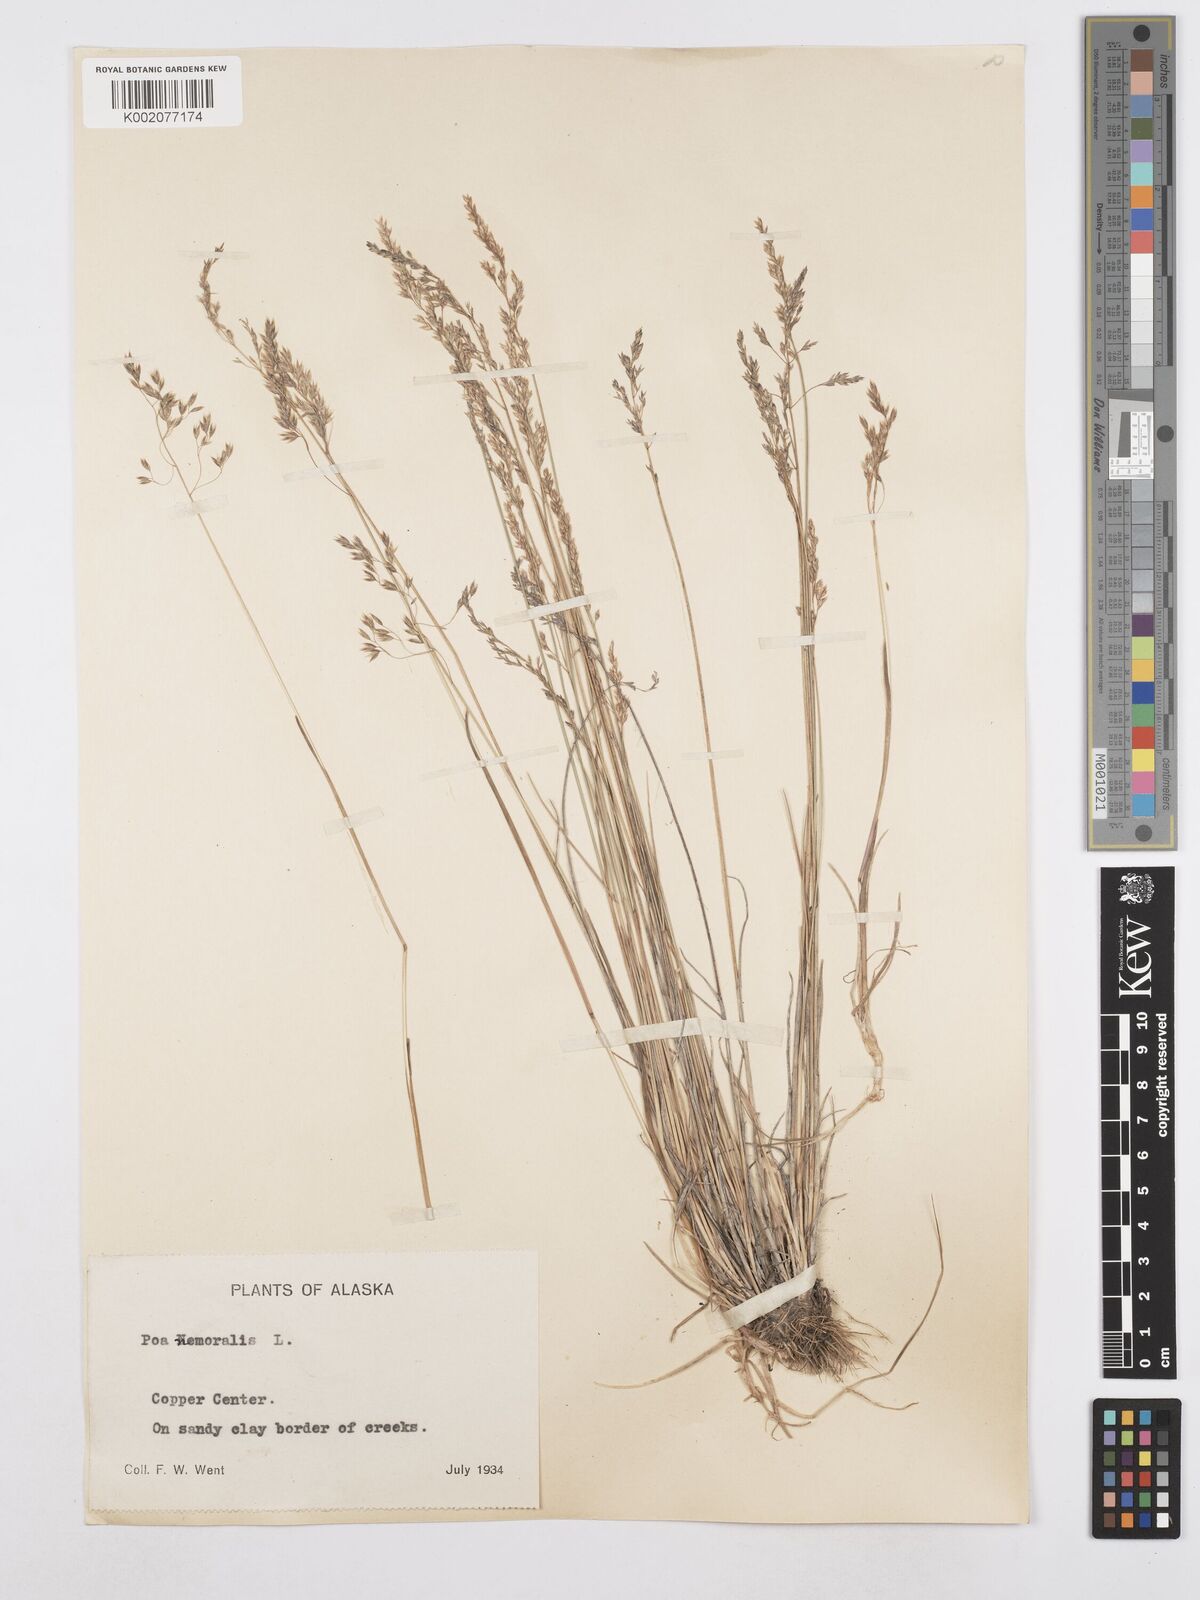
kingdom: Plantae
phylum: Tracheophyta
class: Liliopsida
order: Poales
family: Poaceae
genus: Poa
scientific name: Poa nemoralis
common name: Wood bluegrass
